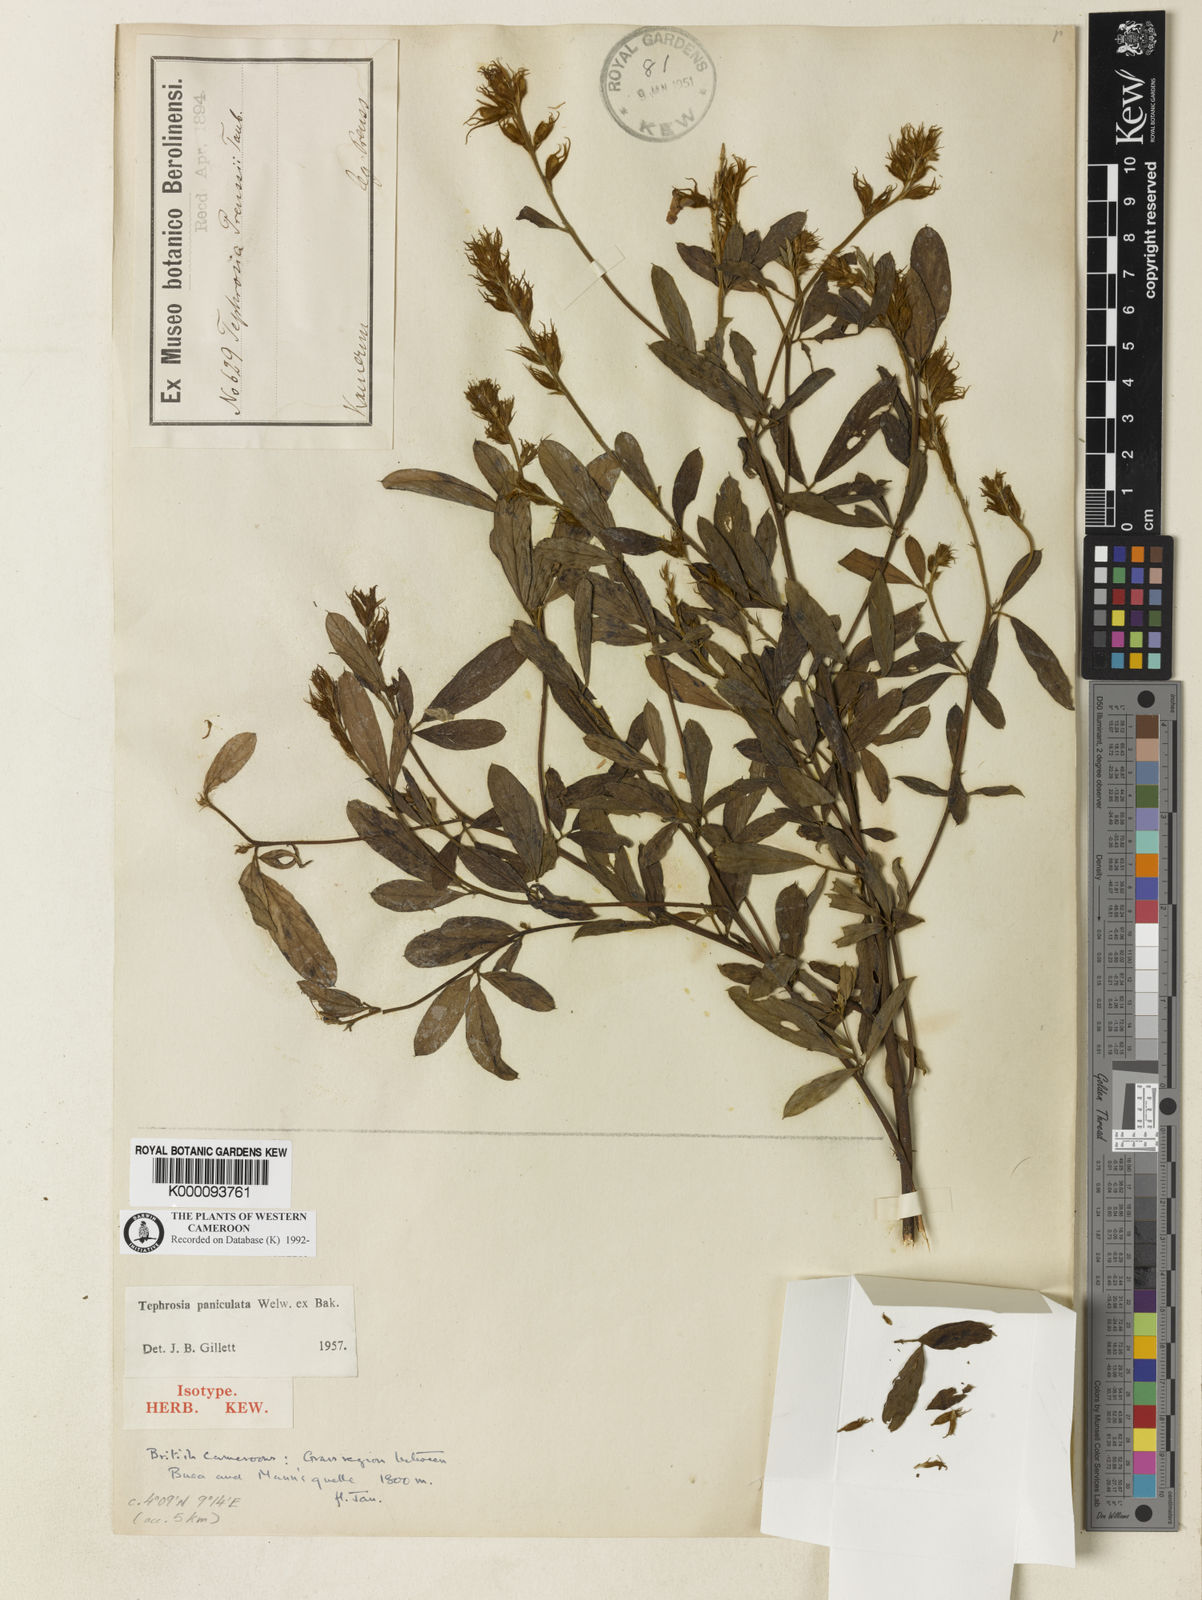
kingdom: Plantae
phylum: Tracheophyta
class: Magnoliopsida
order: Fabales
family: Fabaceae
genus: Tephrosia
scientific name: Tephrosia paniculata
